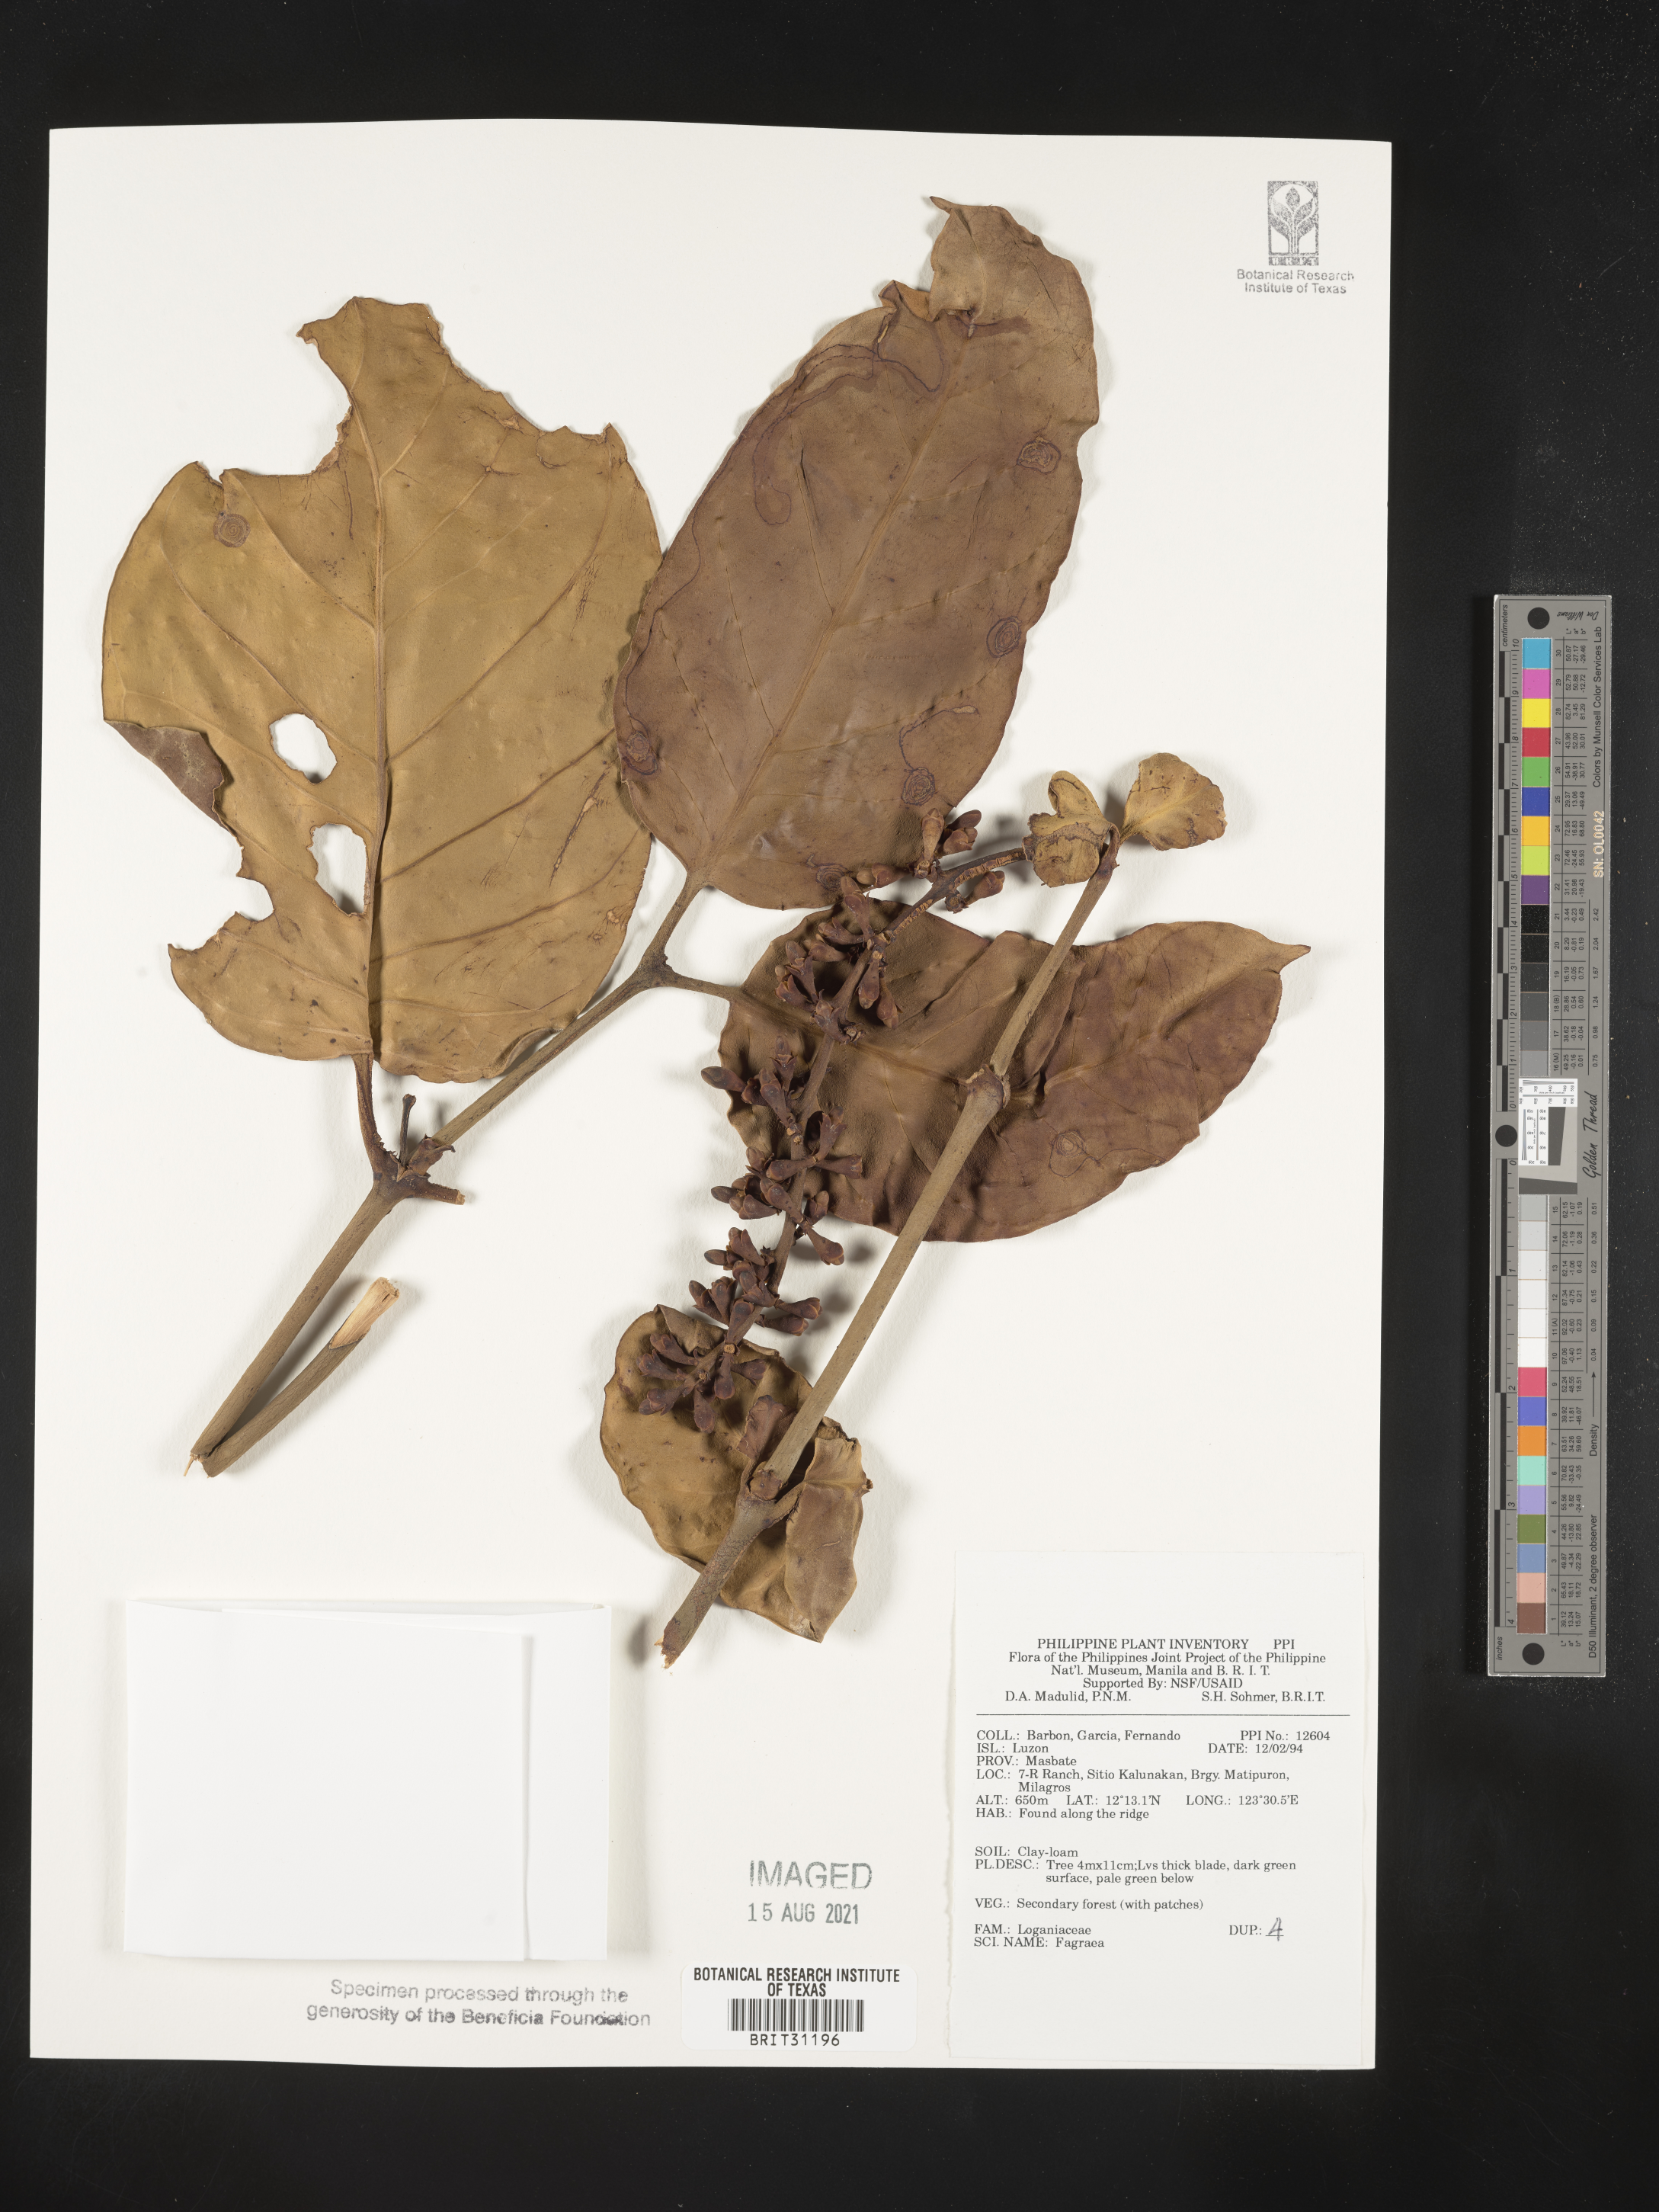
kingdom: Plantae
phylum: Tracheophyta
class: Magnoliopsida
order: Gentianales
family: Gentianaceae
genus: Fagraea
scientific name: Fagraea
